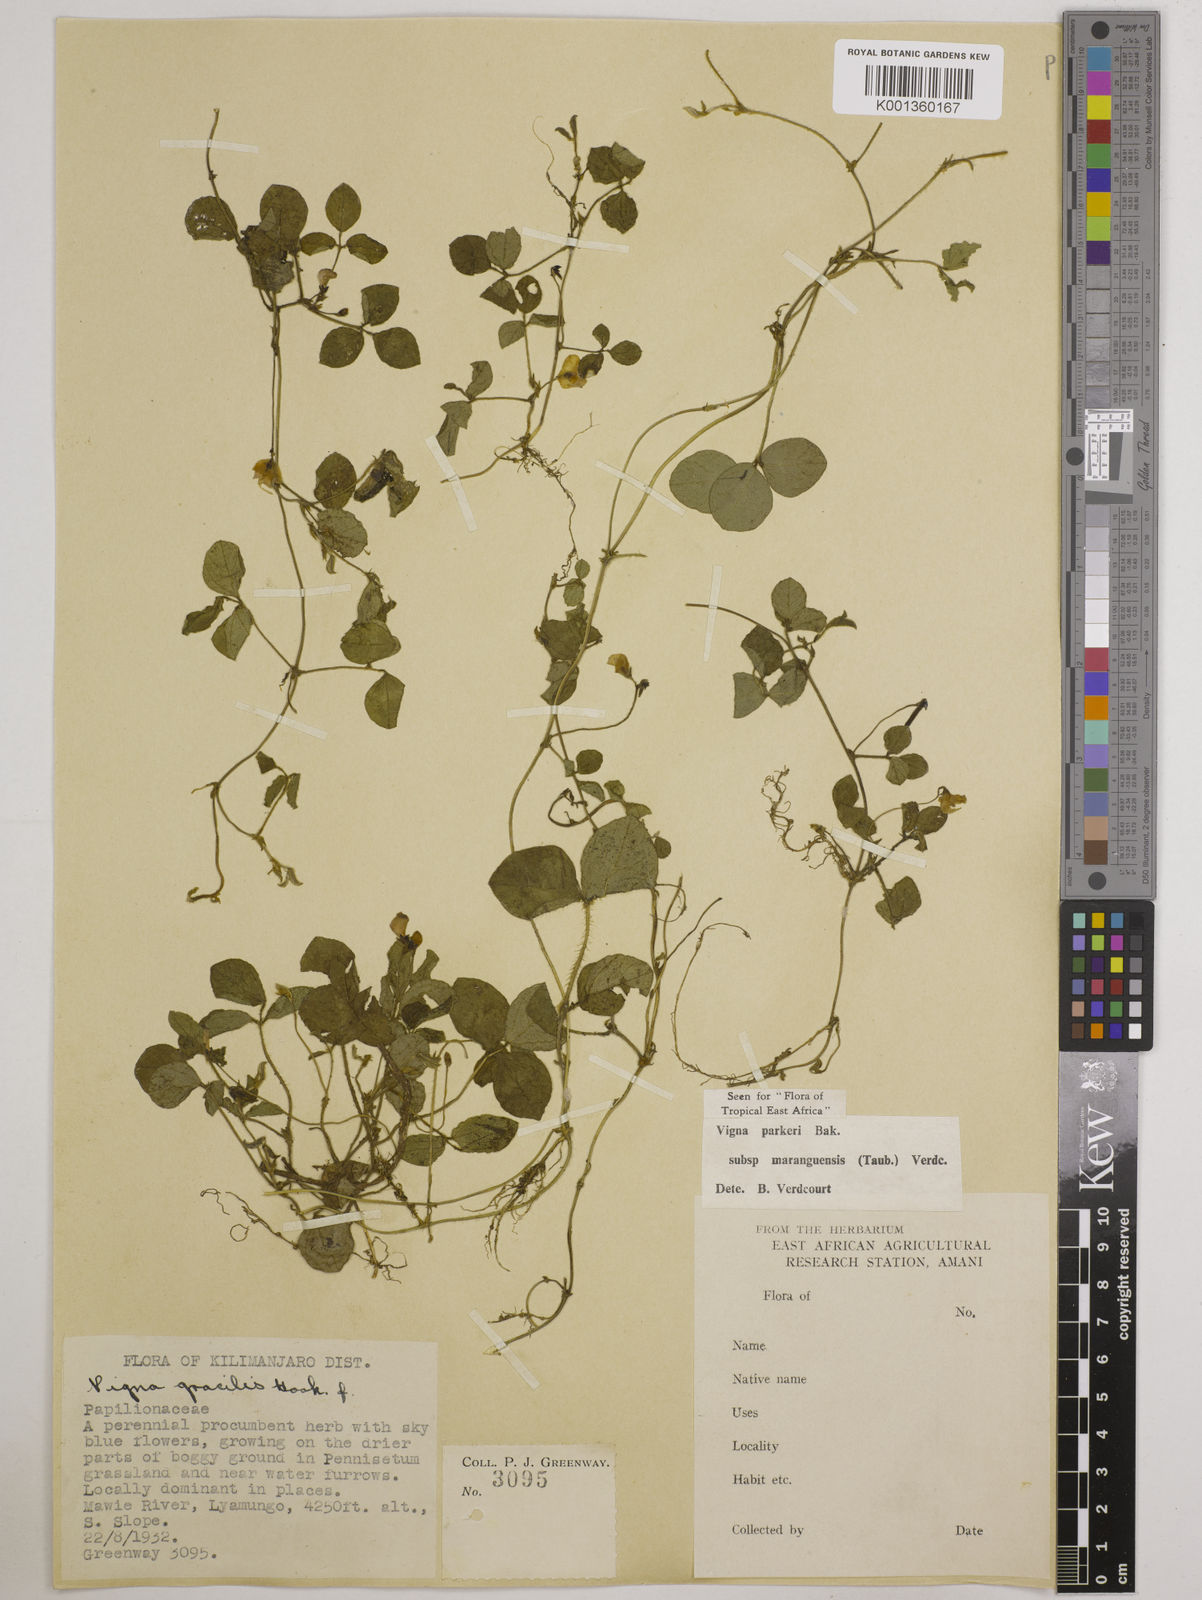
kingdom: Plantae
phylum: Tracheophyta
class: Magnoliopsida
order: Fabales
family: Fabaceae
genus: Vigna
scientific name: Vigna
